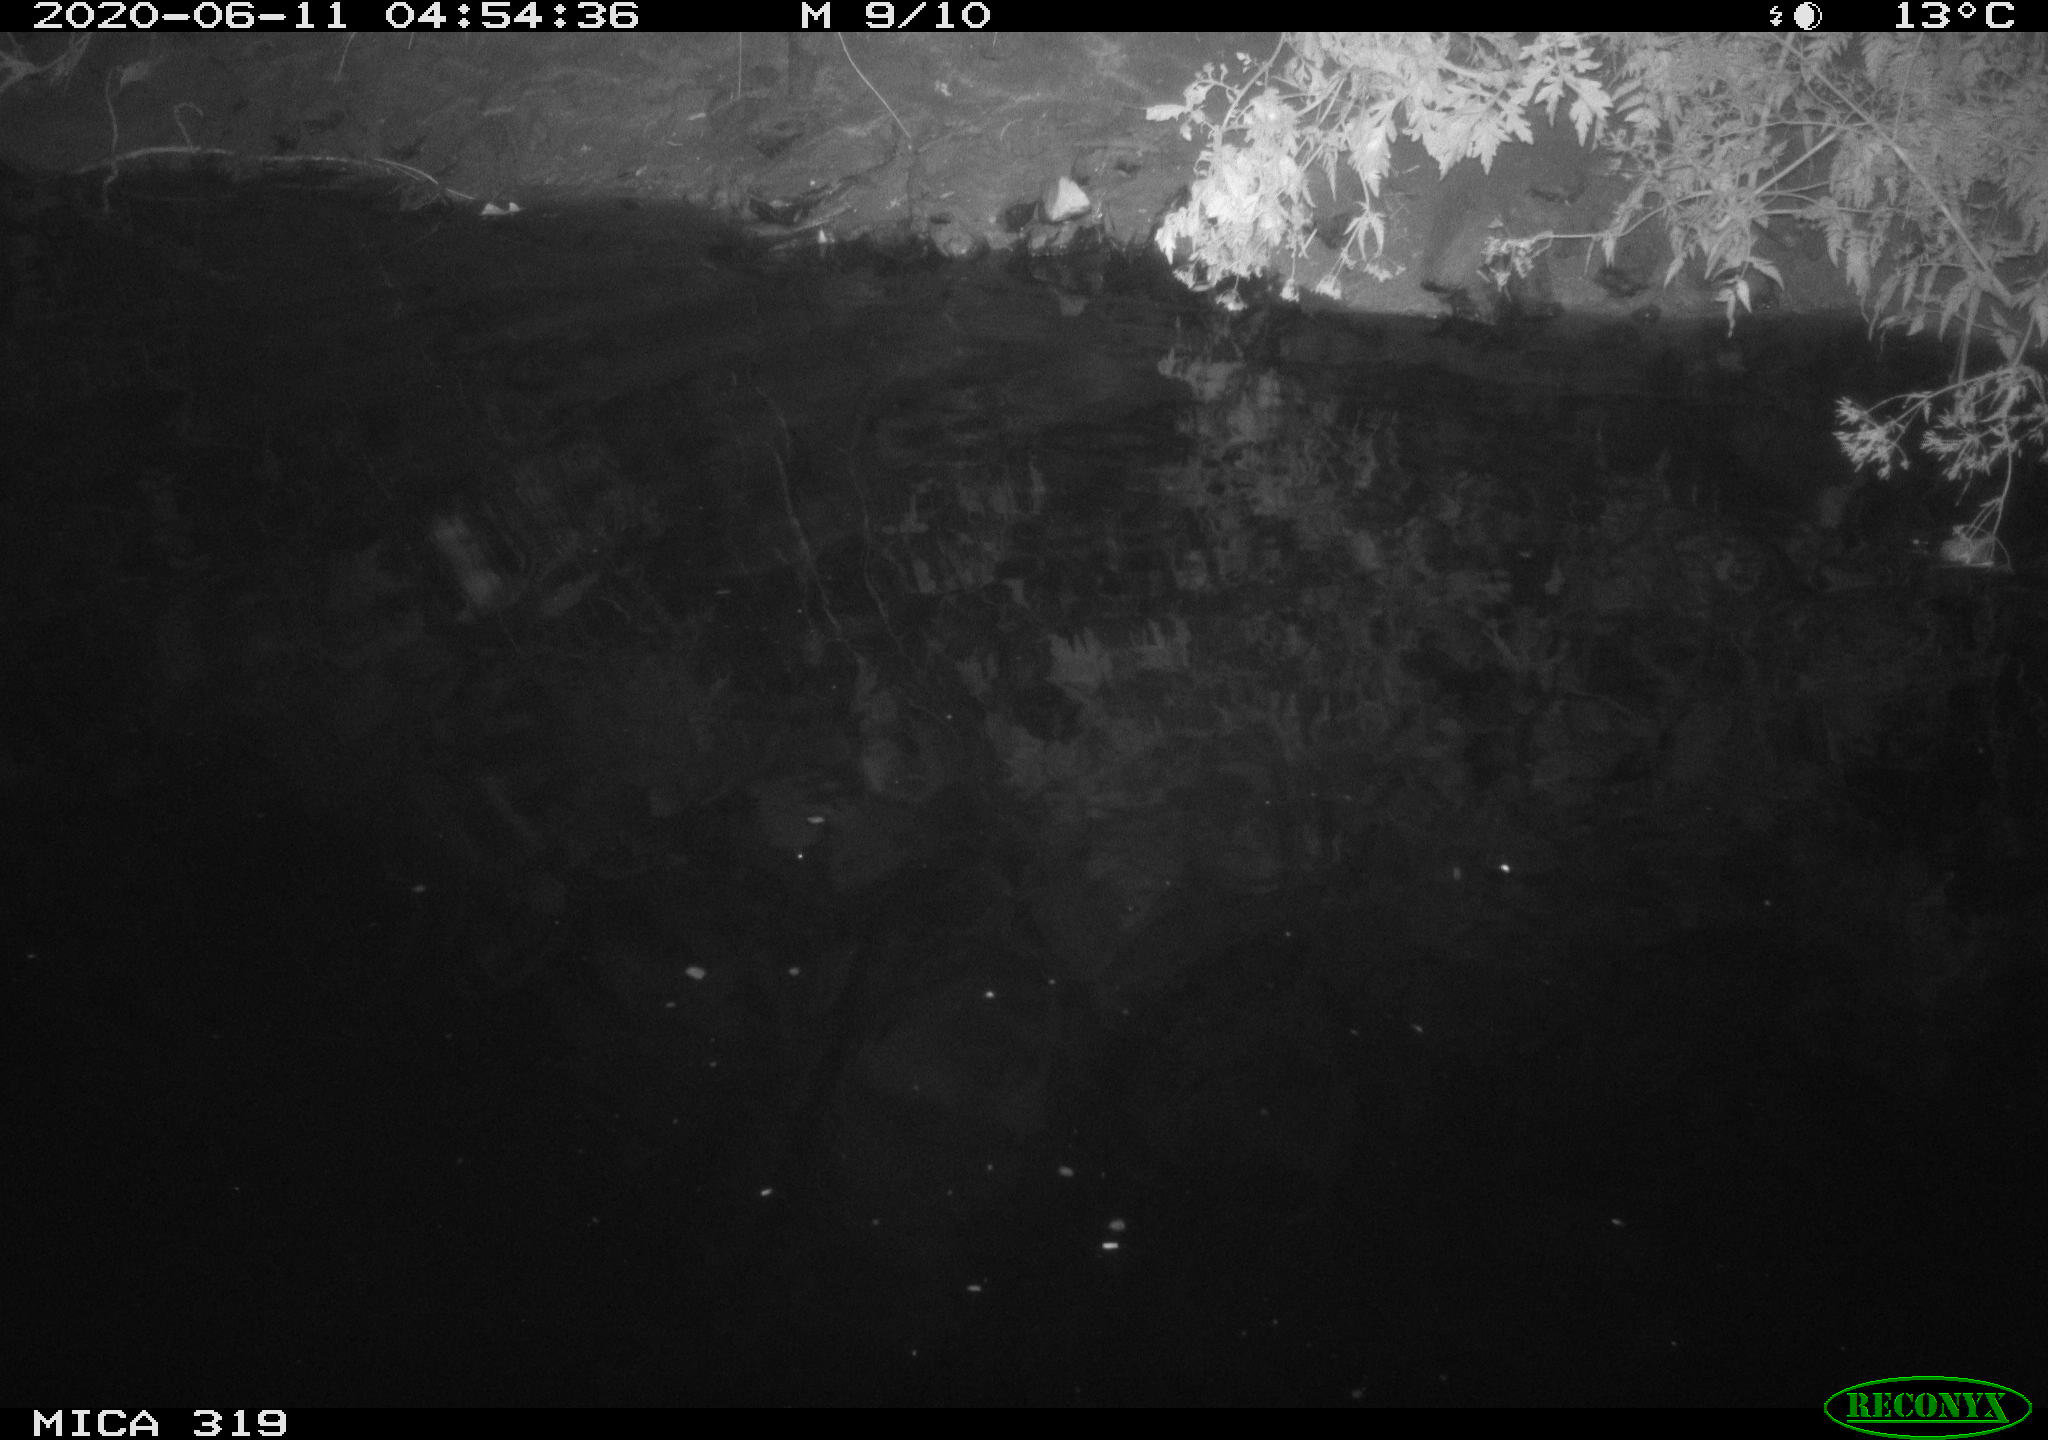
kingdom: Animalia
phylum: Chordata
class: Aves
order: Anseriformes
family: Anatidae
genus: Anas
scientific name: Anas platyrhynchos
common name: Mallard
